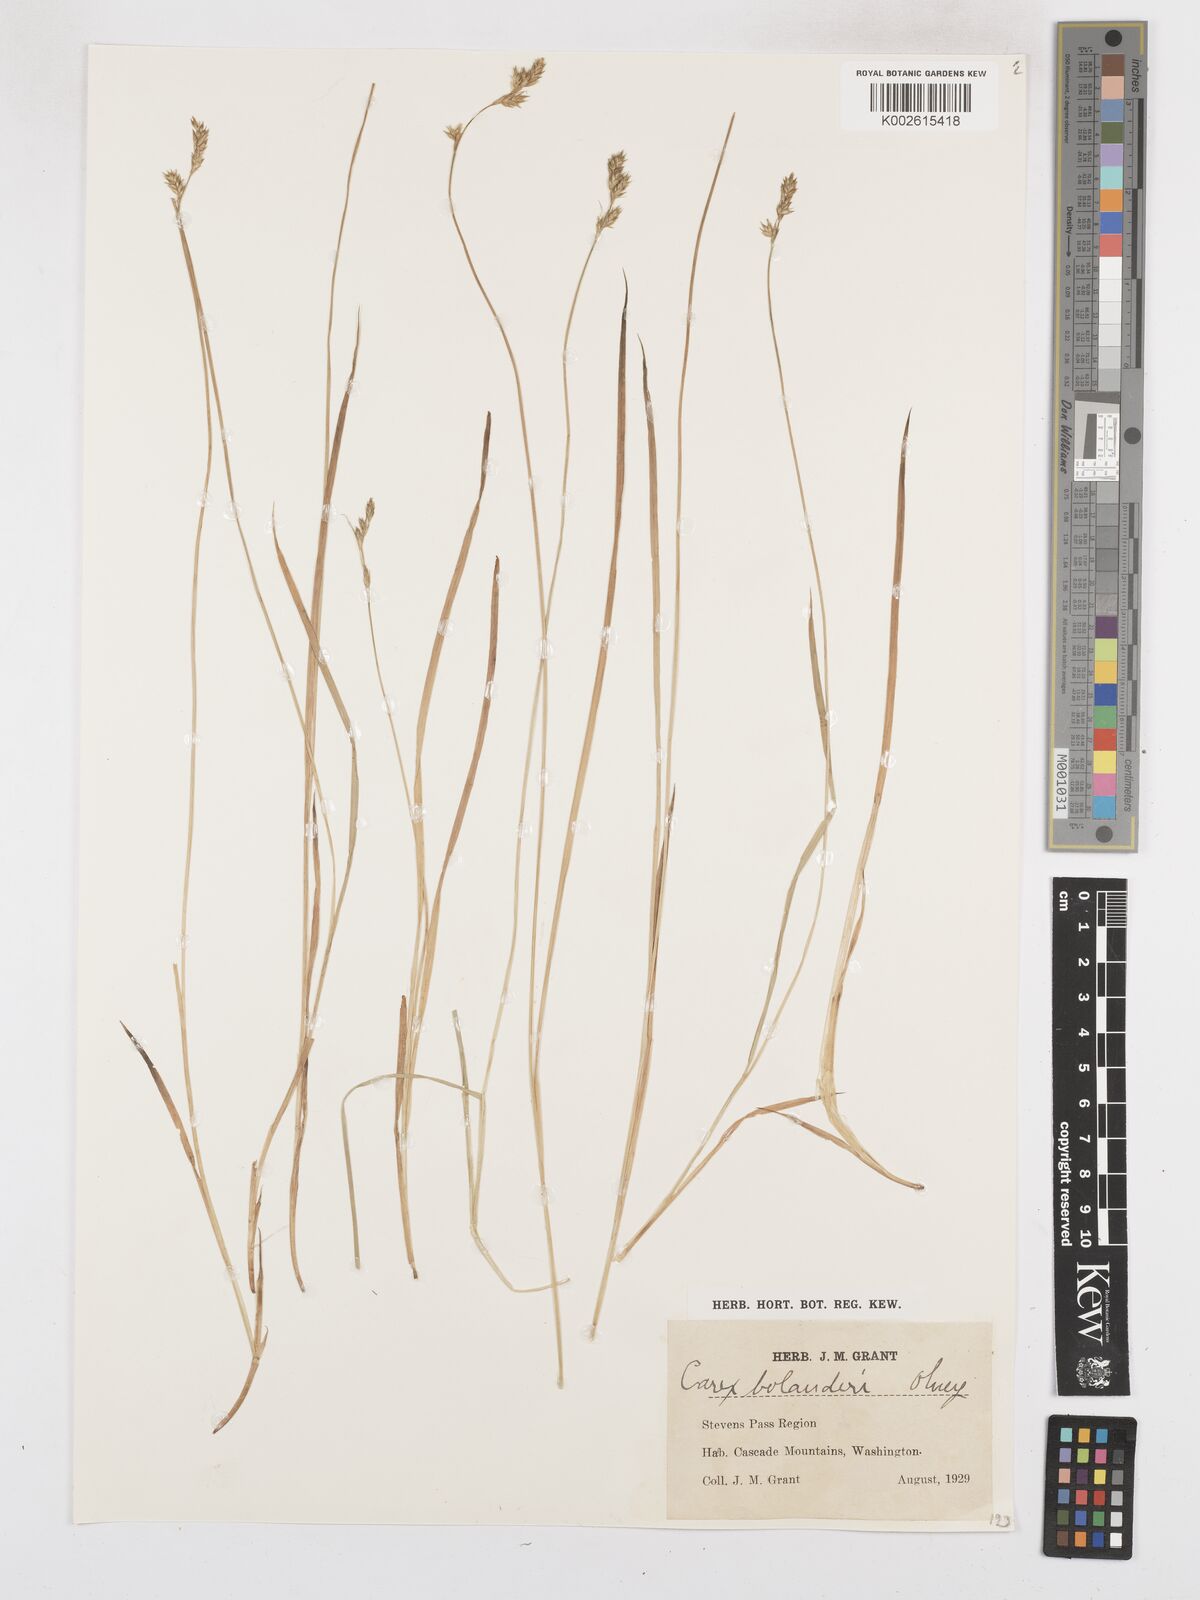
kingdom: Plantae
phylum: Tracheophyta
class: Liliopsida
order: Poales
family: Cyperaceae
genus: Carex
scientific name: Carex bolanderi
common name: Bolander's sedge
